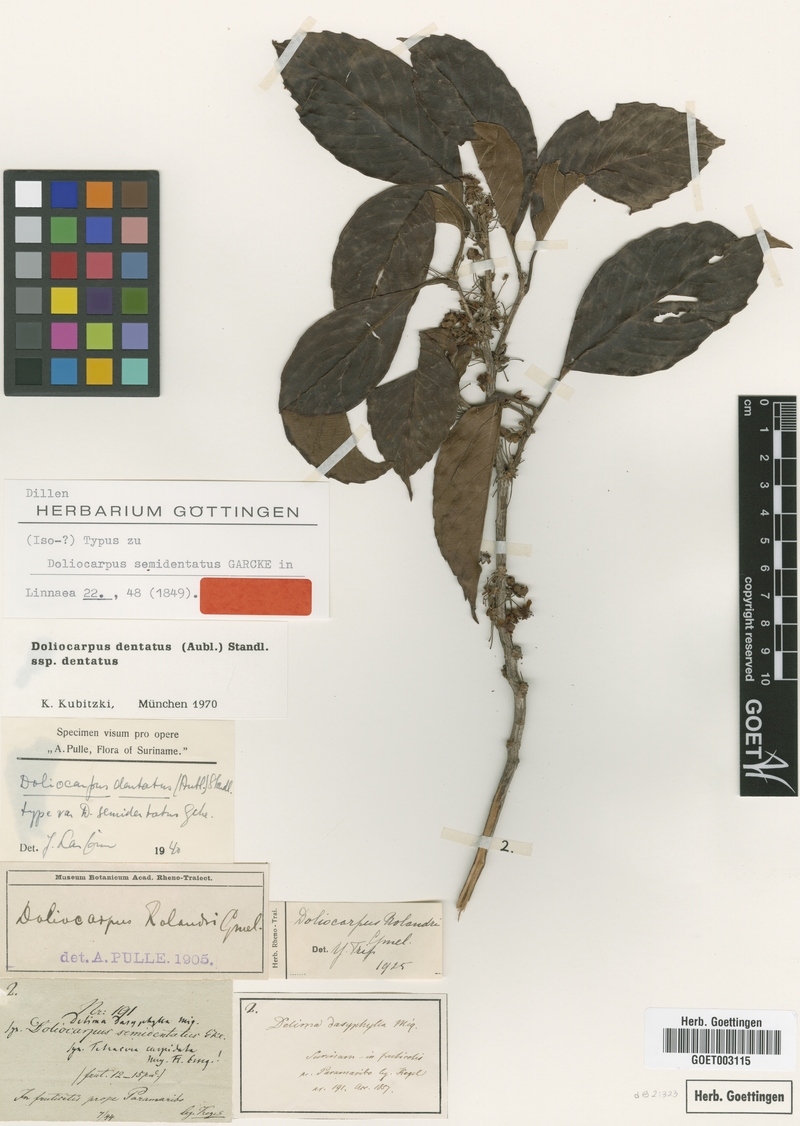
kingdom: Plantae
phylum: Tracheophyta
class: Magnoliopsida
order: Dilleniales
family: Dilleniaceae
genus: Doliocarpus
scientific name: Doliocarpus dentatus
